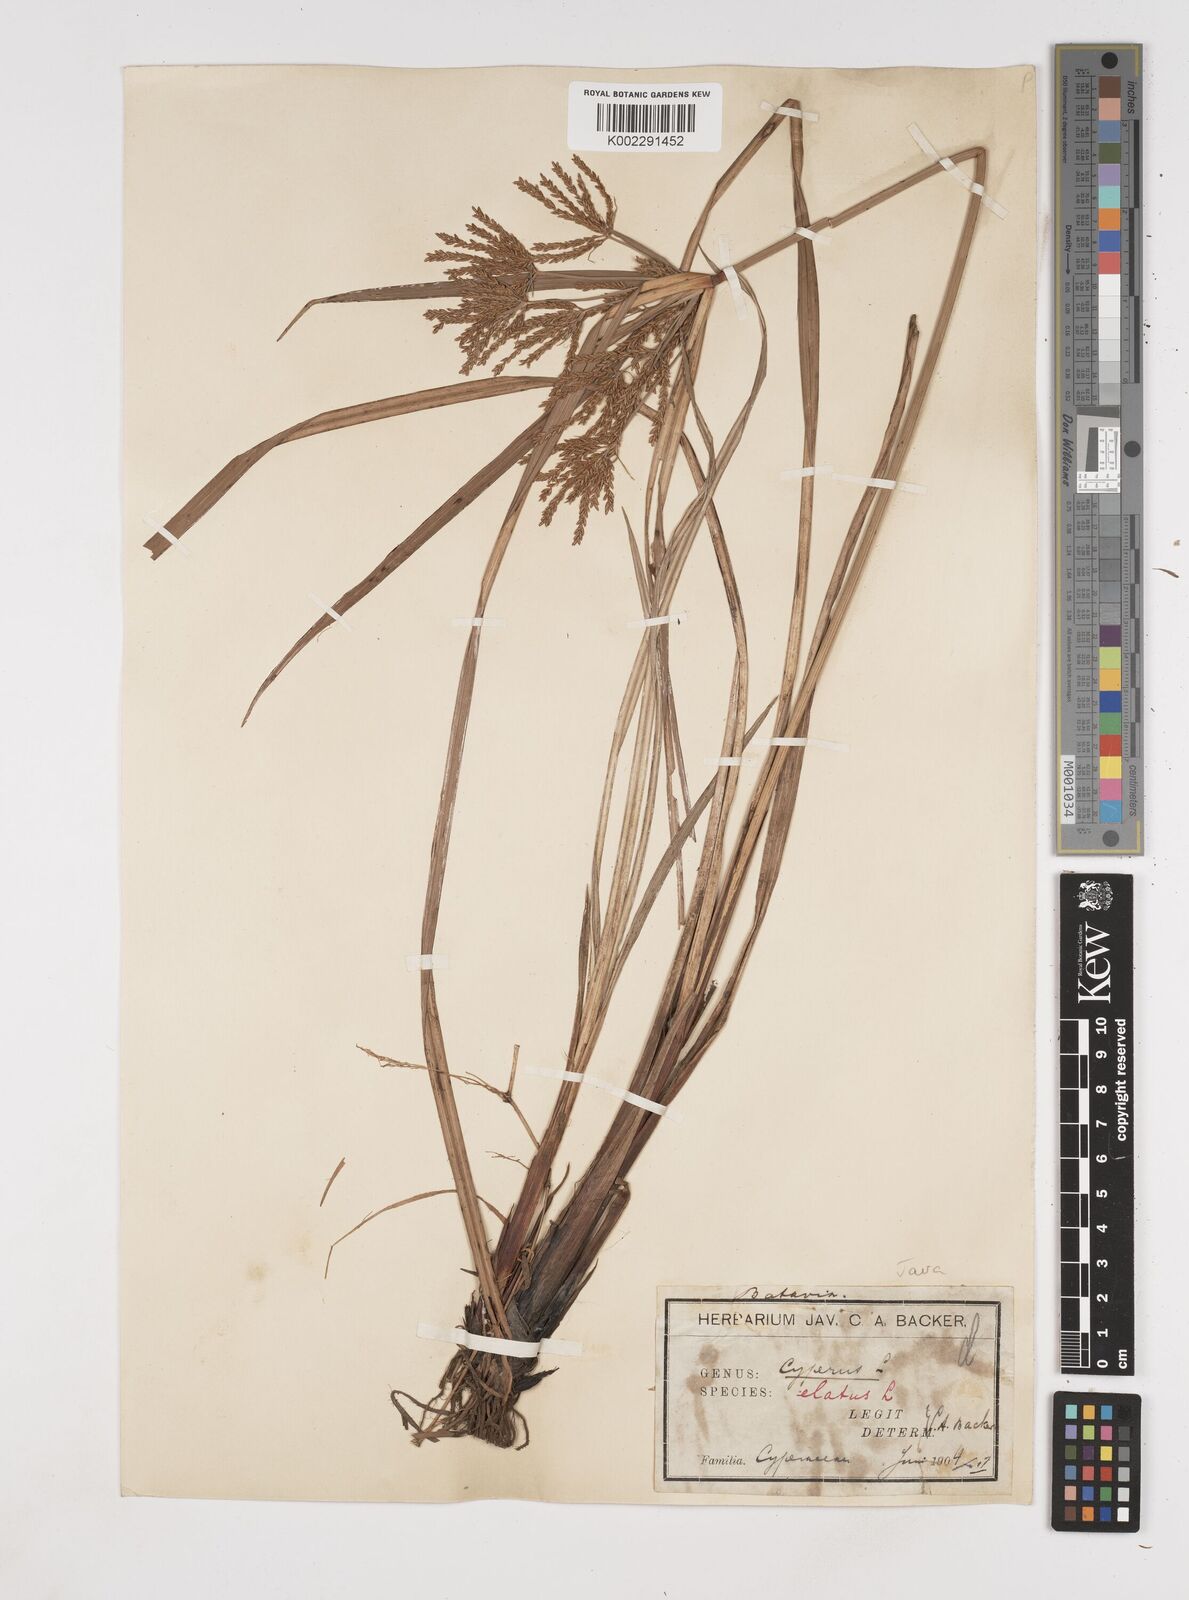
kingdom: Plantae
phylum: Tracheophyta
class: Liliopsida
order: Poales
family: Cyperaceae
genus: Cyperus
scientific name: Cyperus elatus
